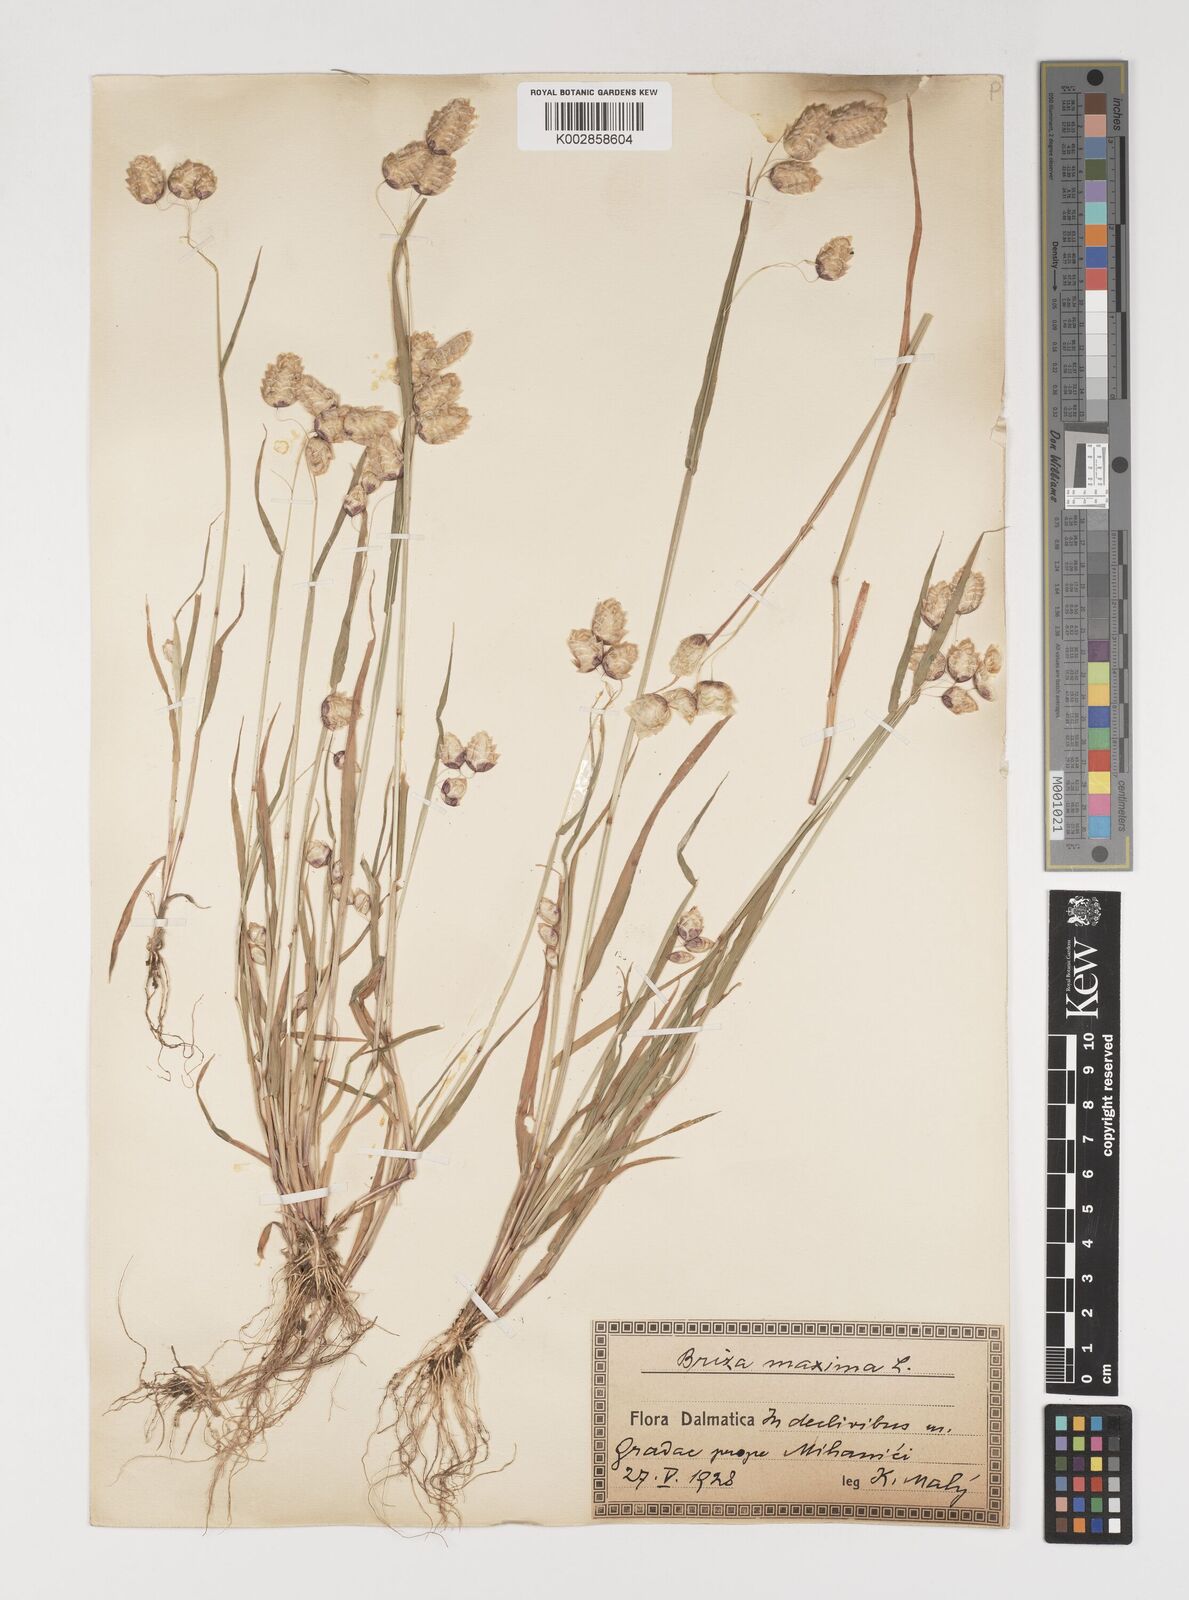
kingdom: Plantae
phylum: Tracheophyta
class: Liliopsida
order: Poales
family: Poaceae
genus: Briza
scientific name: Briza maxima
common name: Big quakinggrass
